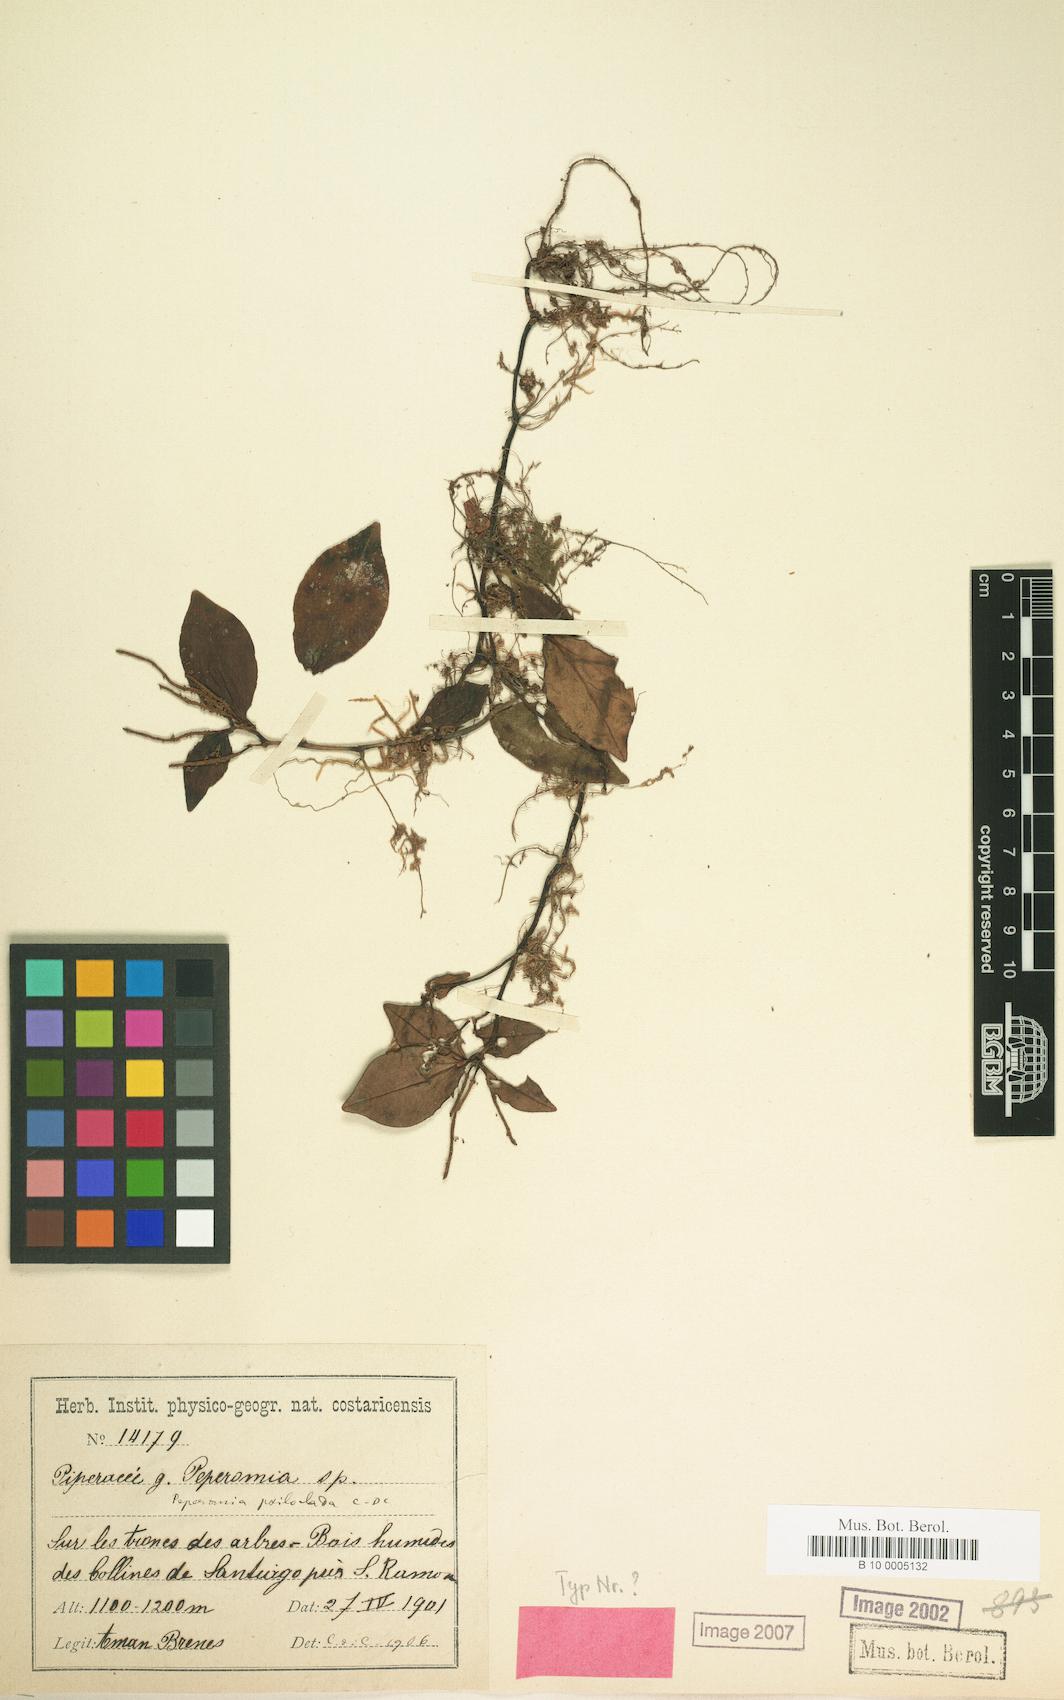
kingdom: Plantae
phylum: Tracheophyta
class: Magnoliopsida
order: Piperales
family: Piperaceae
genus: Peperomia
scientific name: Peperomia san-joseana
